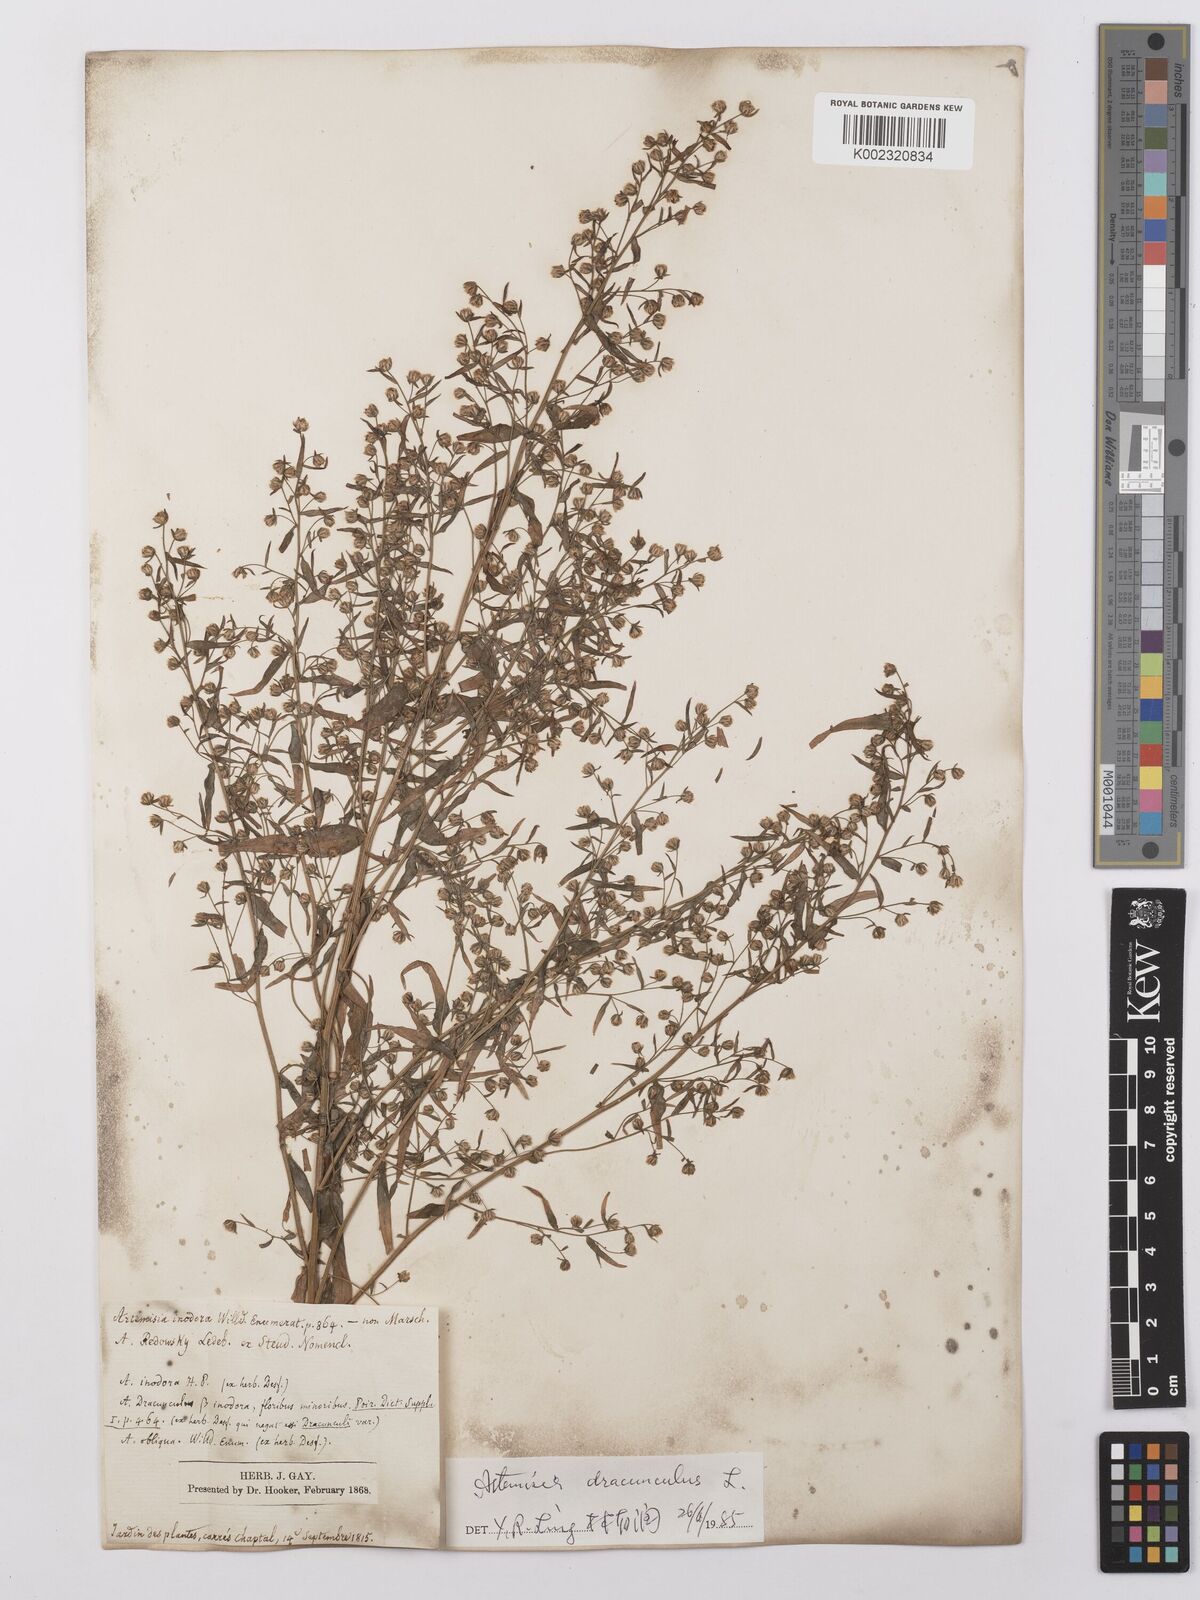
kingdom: Plantae
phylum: Tracheophyta
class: Magnoliopsida
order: Asterales
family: Asteraceae
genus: Artemisia
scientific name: Artemisia marschalliana
